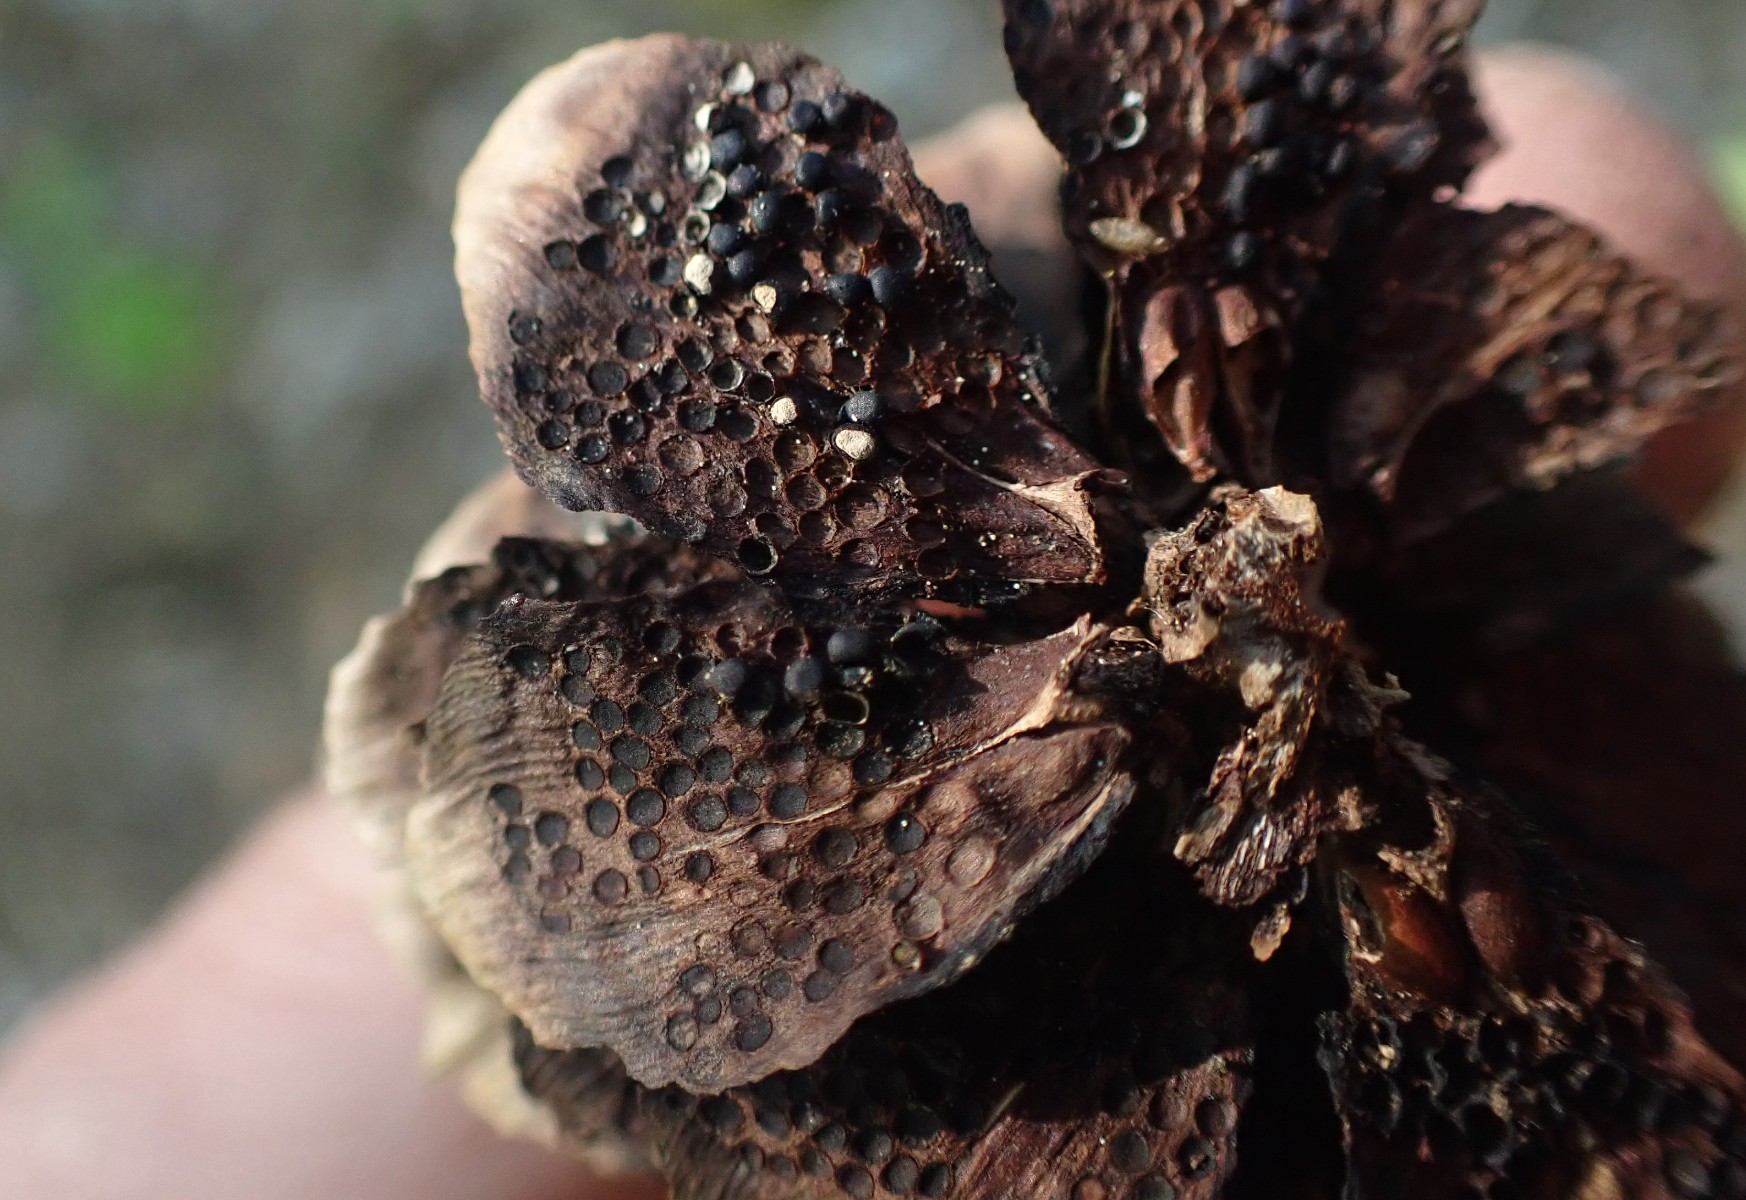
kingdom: Fungi
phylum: Basidiomycota
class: Pucciniomycetes
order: Pucciniales
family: Pucciniastraceae
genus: Thekopsora
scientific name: Thekopsora areolata
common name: grankogle-nålerust
